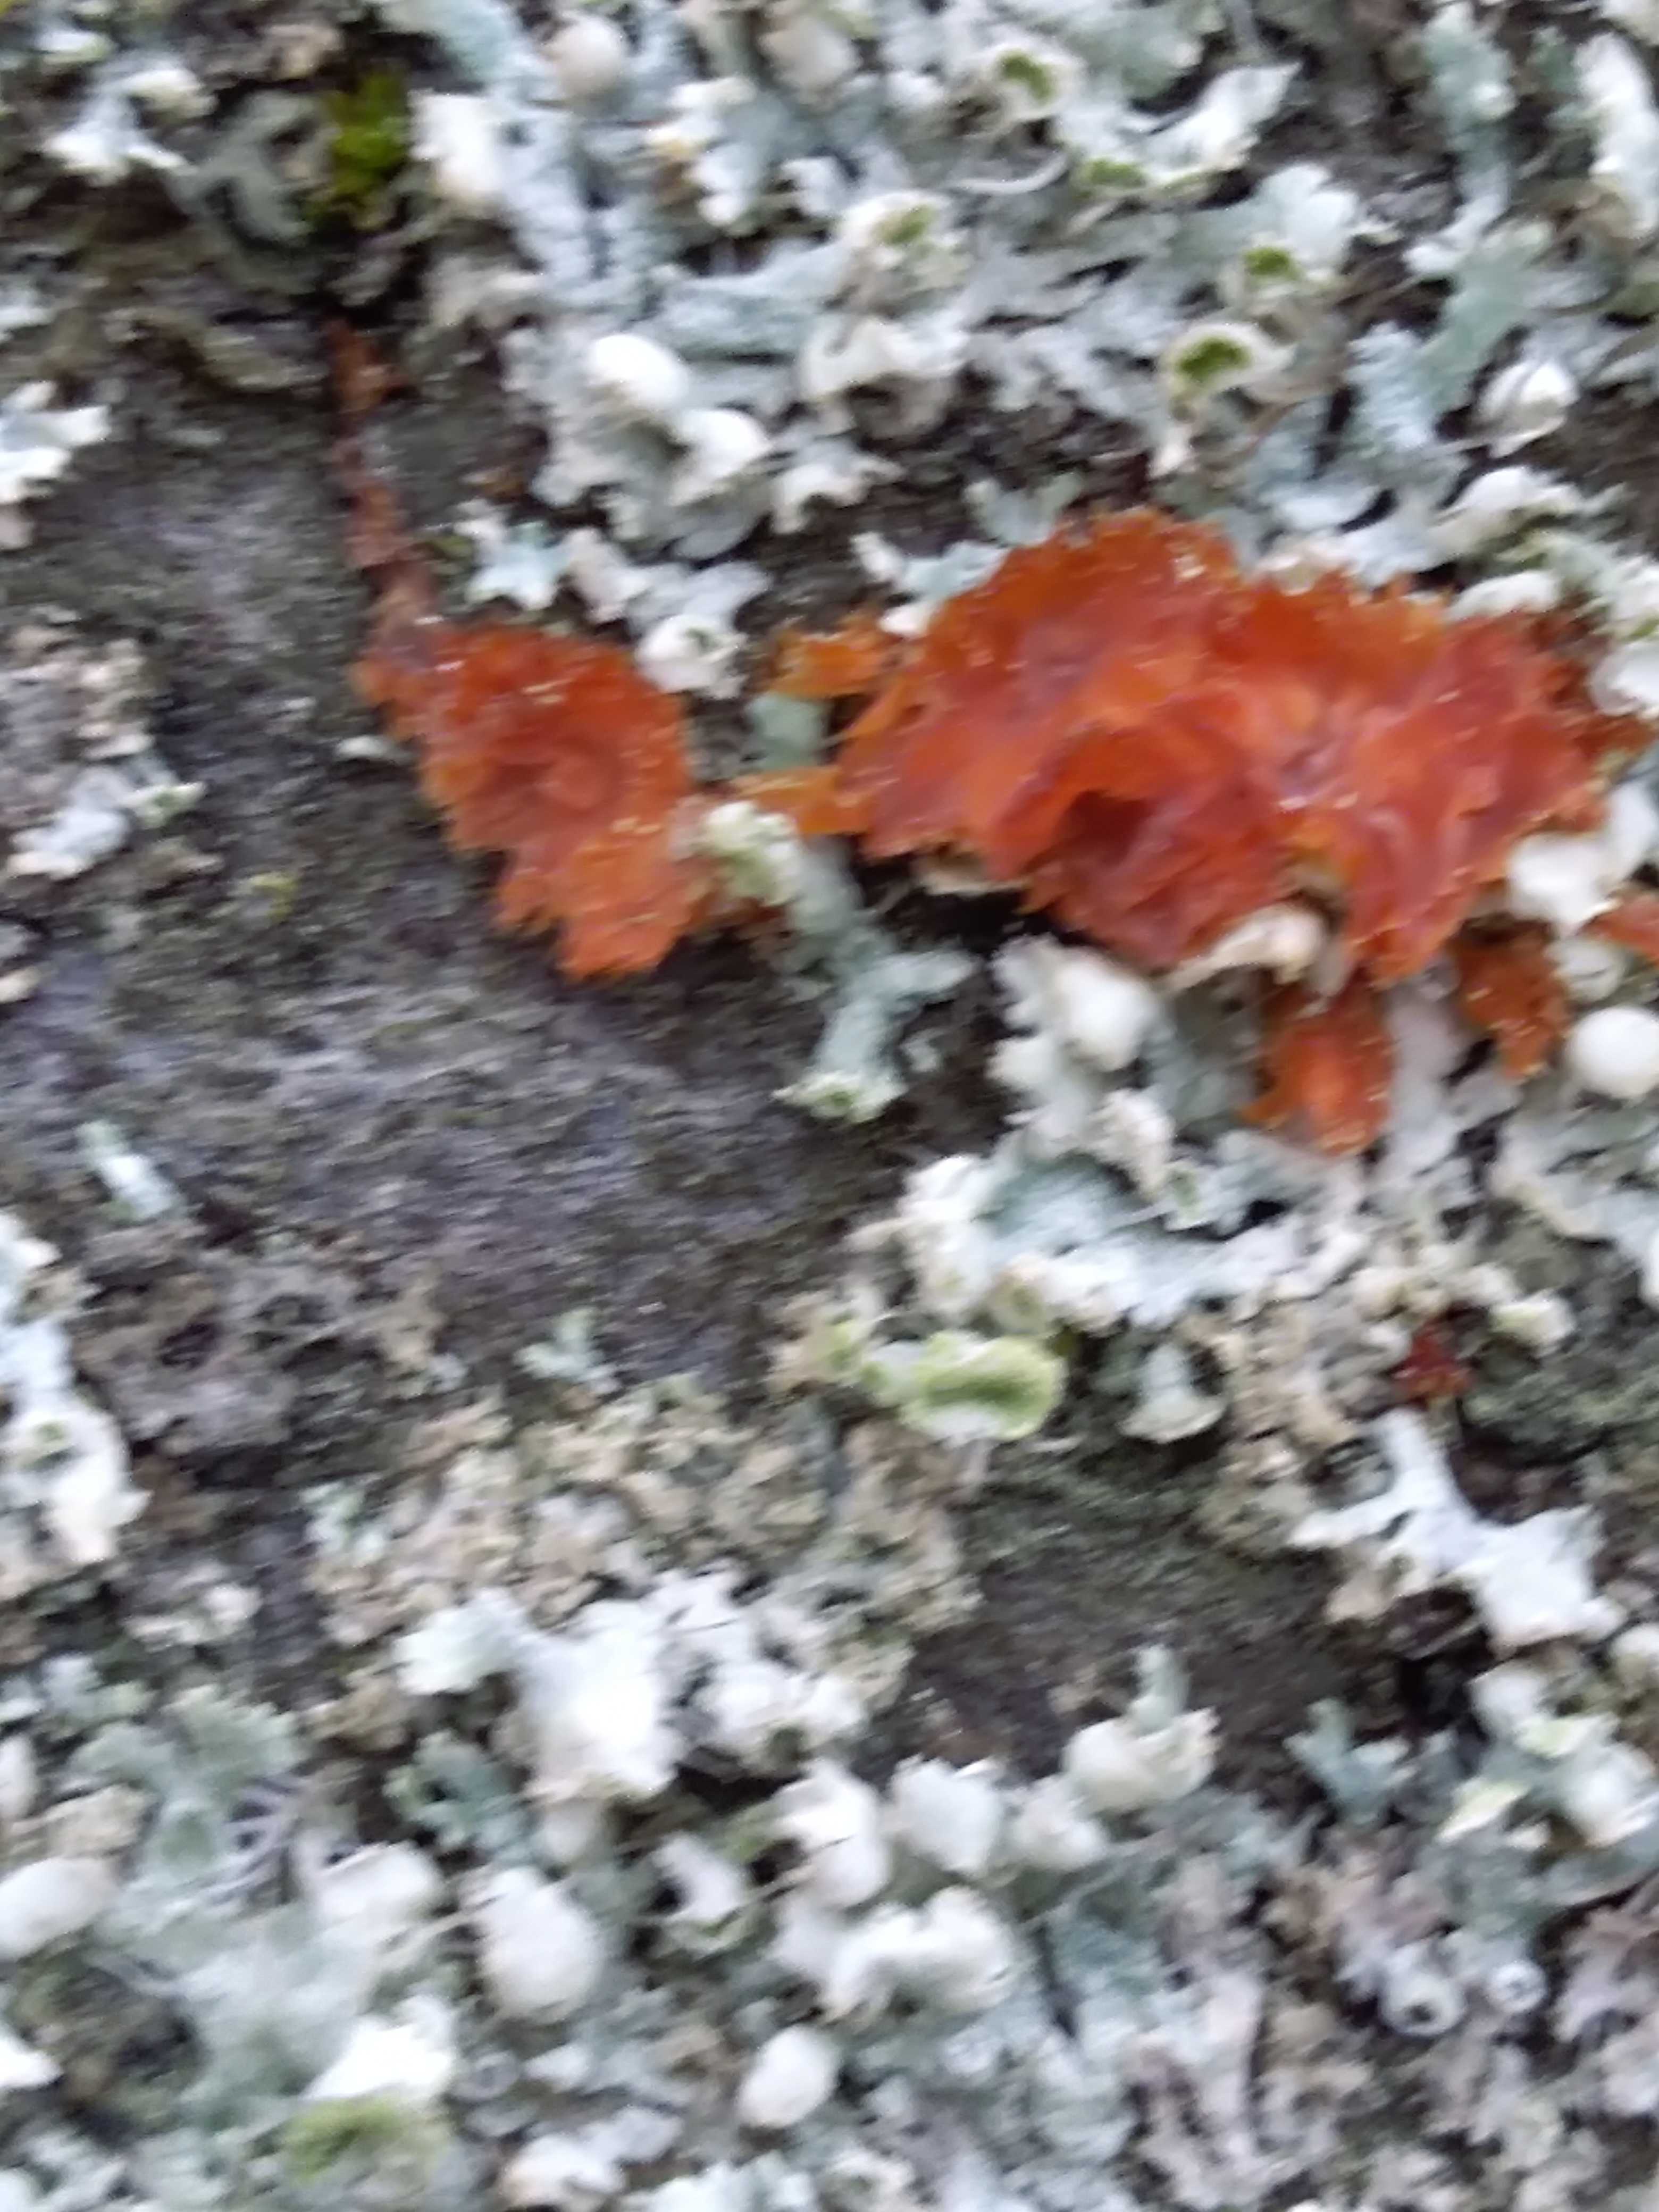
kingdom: Fungi
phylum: Basidiomycota
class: Agaricomycetes
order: Polyporales
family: Meruliaceae
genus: Phlebia
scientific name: Phlebia radiata
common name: stråle-åresvamp
